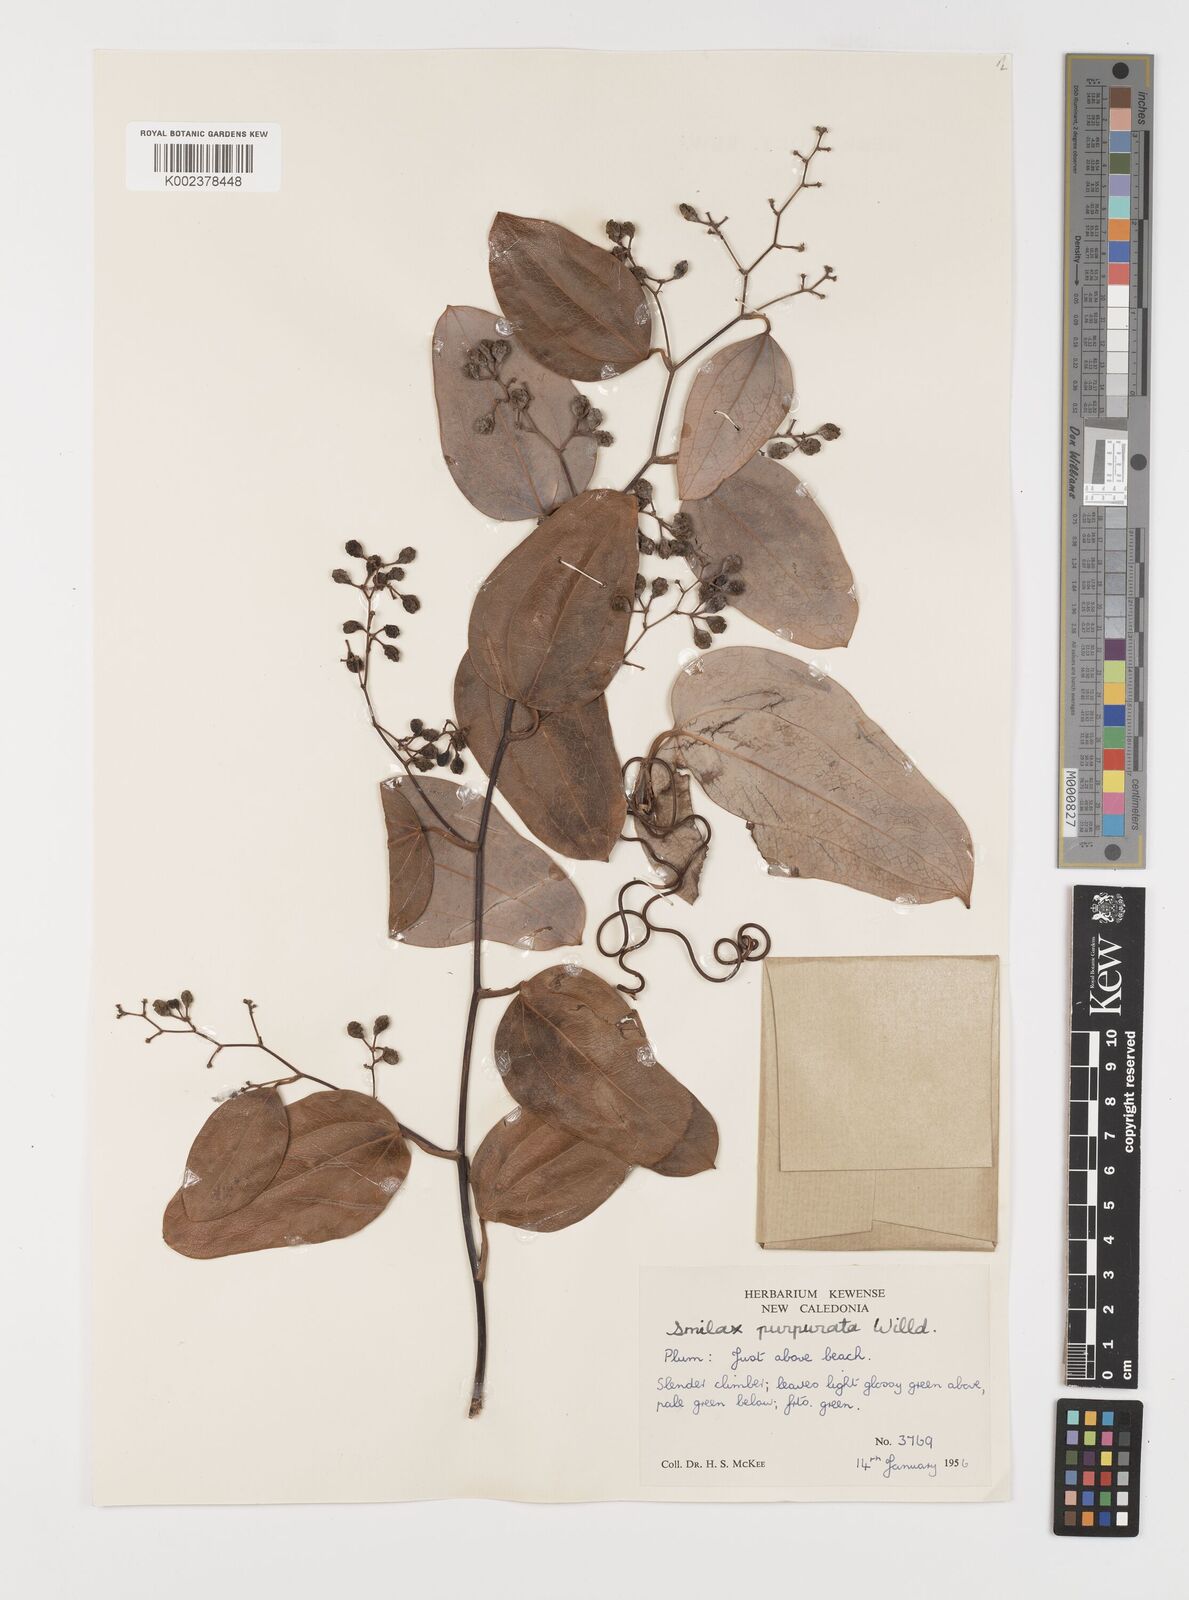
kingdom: Plantae
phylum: Tracheophyta
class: Liliopsida
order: Liliales
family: Smilacaceae
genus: Smilax
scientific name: Smilax purpurata
